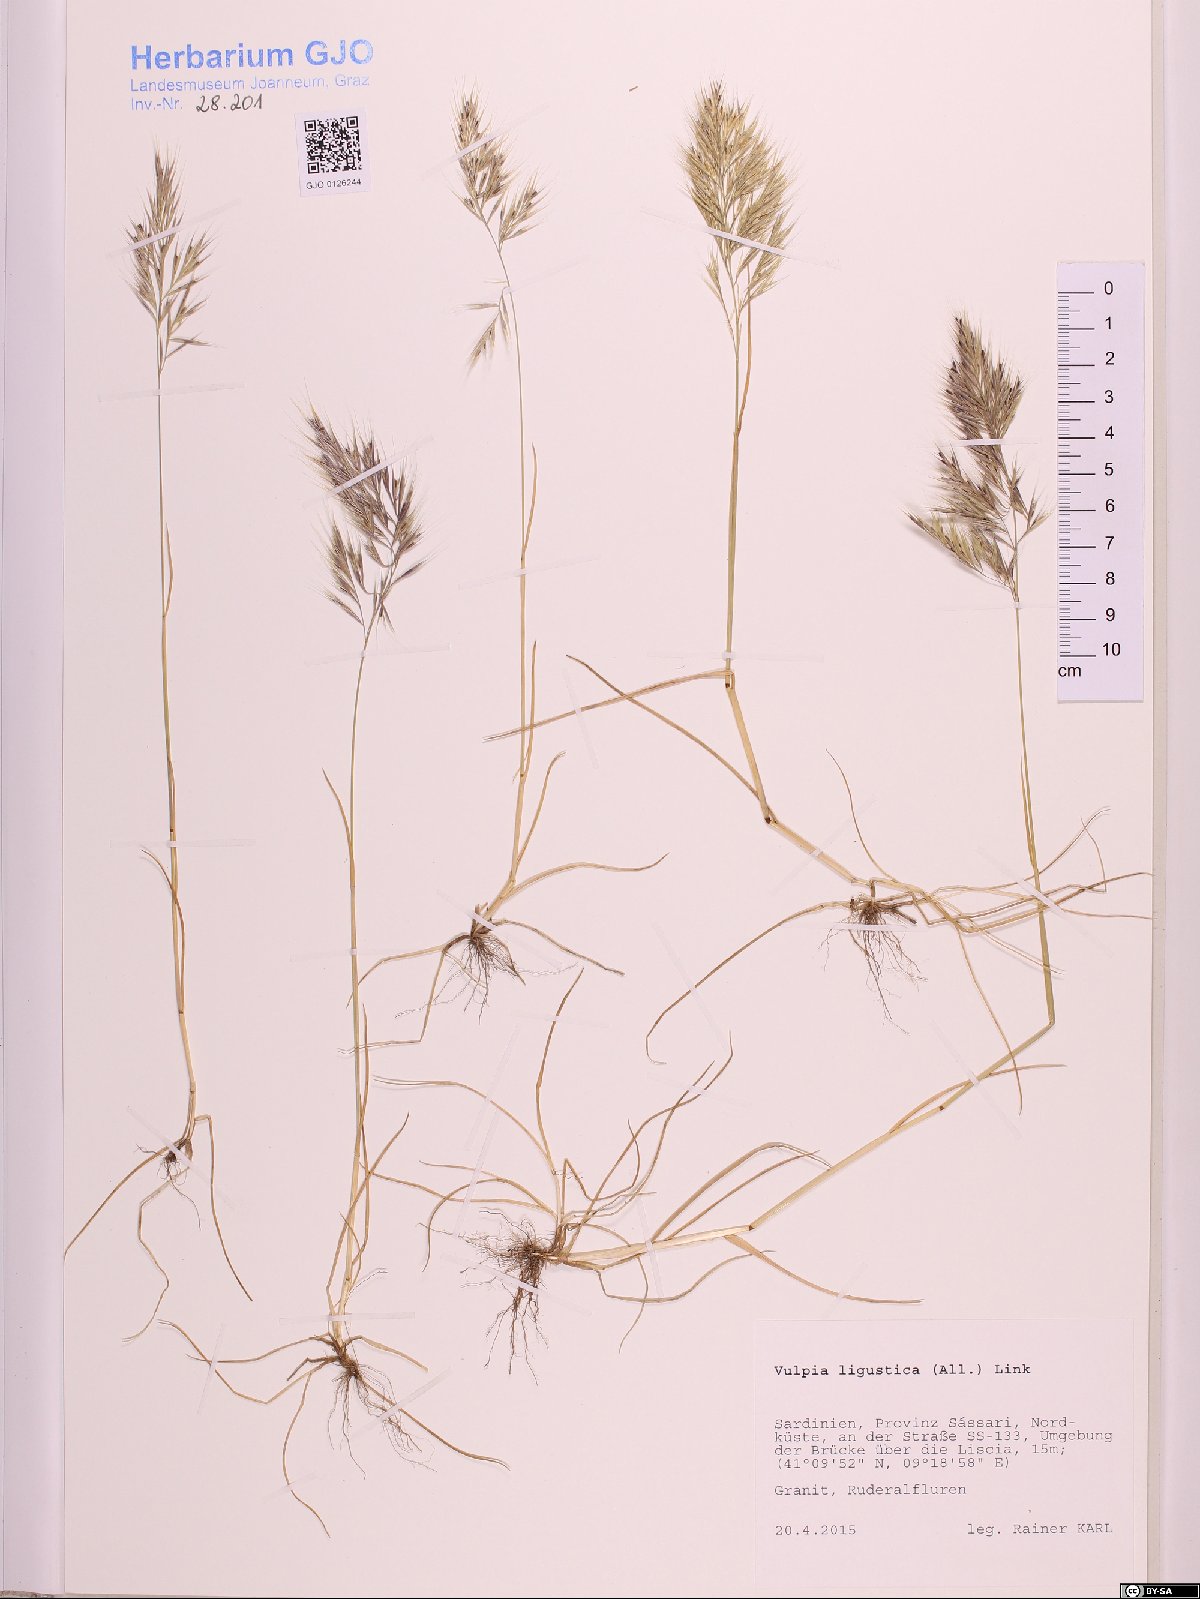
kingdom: Plantae
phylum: Tracheophyta
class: Liliopsida
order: Poales
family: Poaceae
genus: Festuca
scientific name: Festuca ligustica
